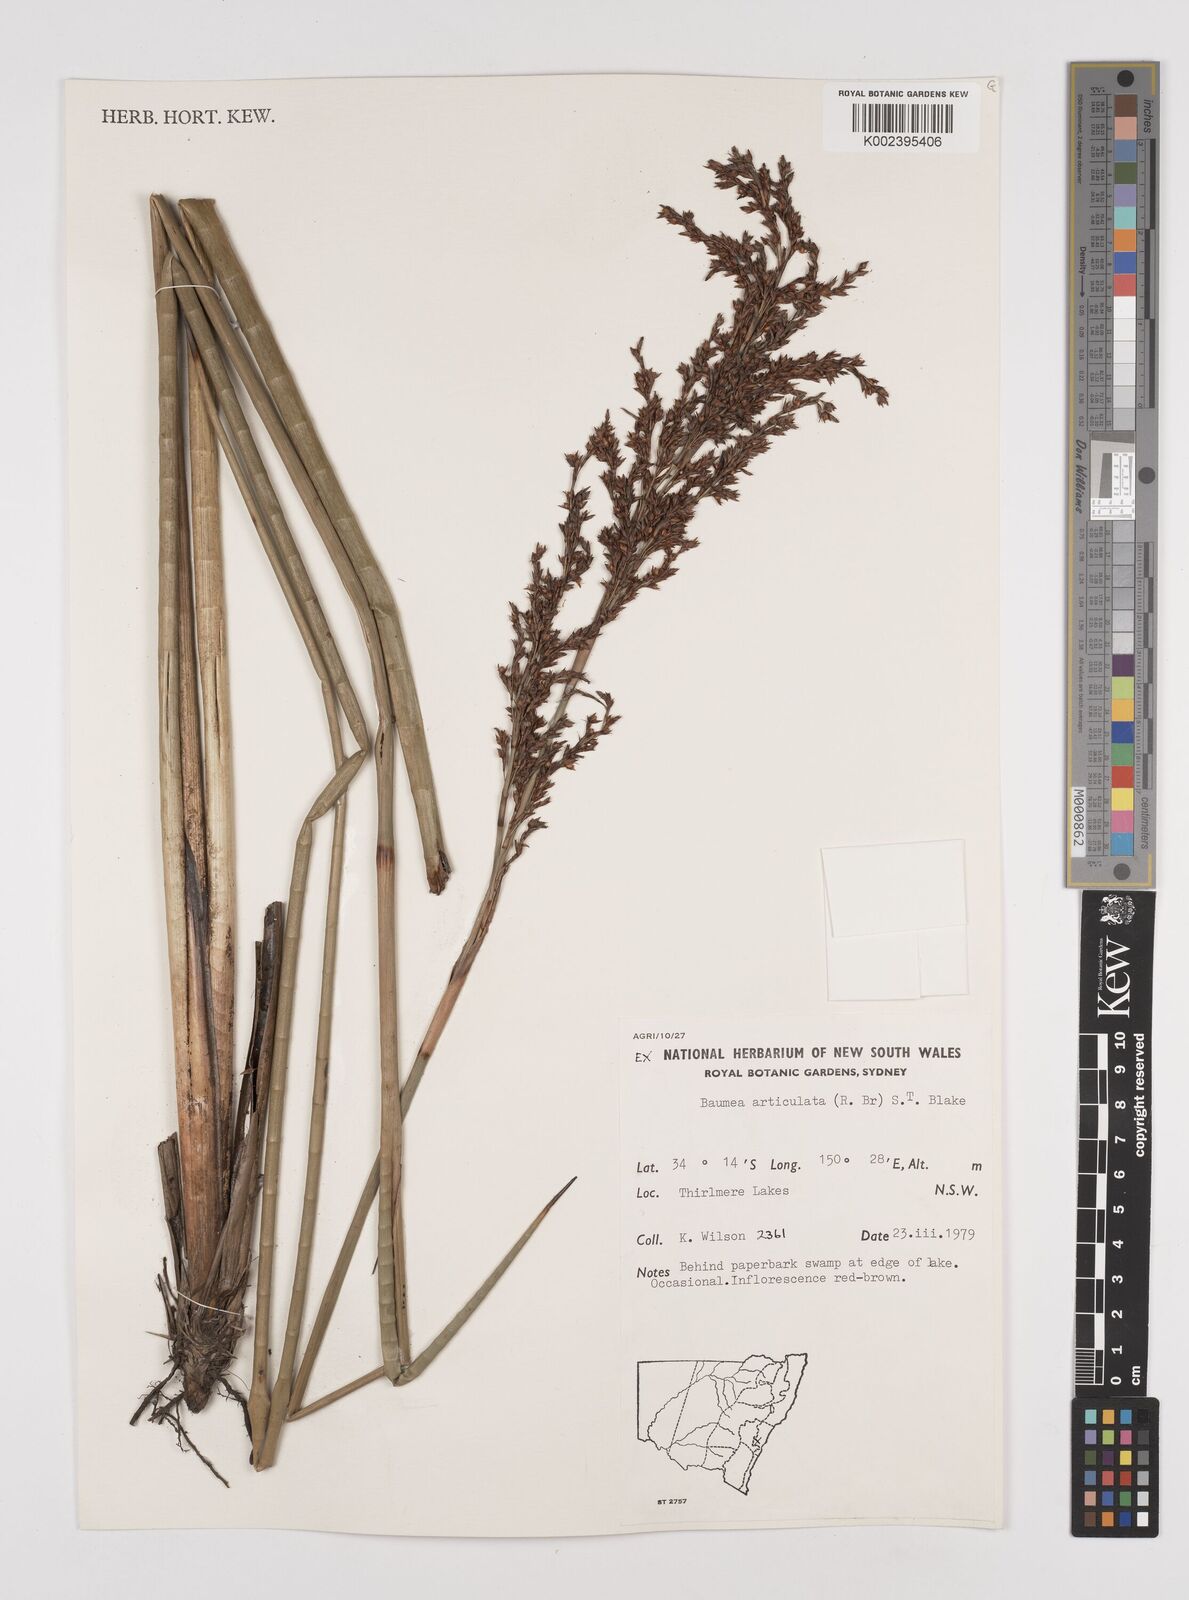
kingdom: Plantae
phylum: Tracheophyta
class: Liliopsida
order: Poales
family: Cyperaceae
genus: Machaerina
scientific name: Machaerina articulata
